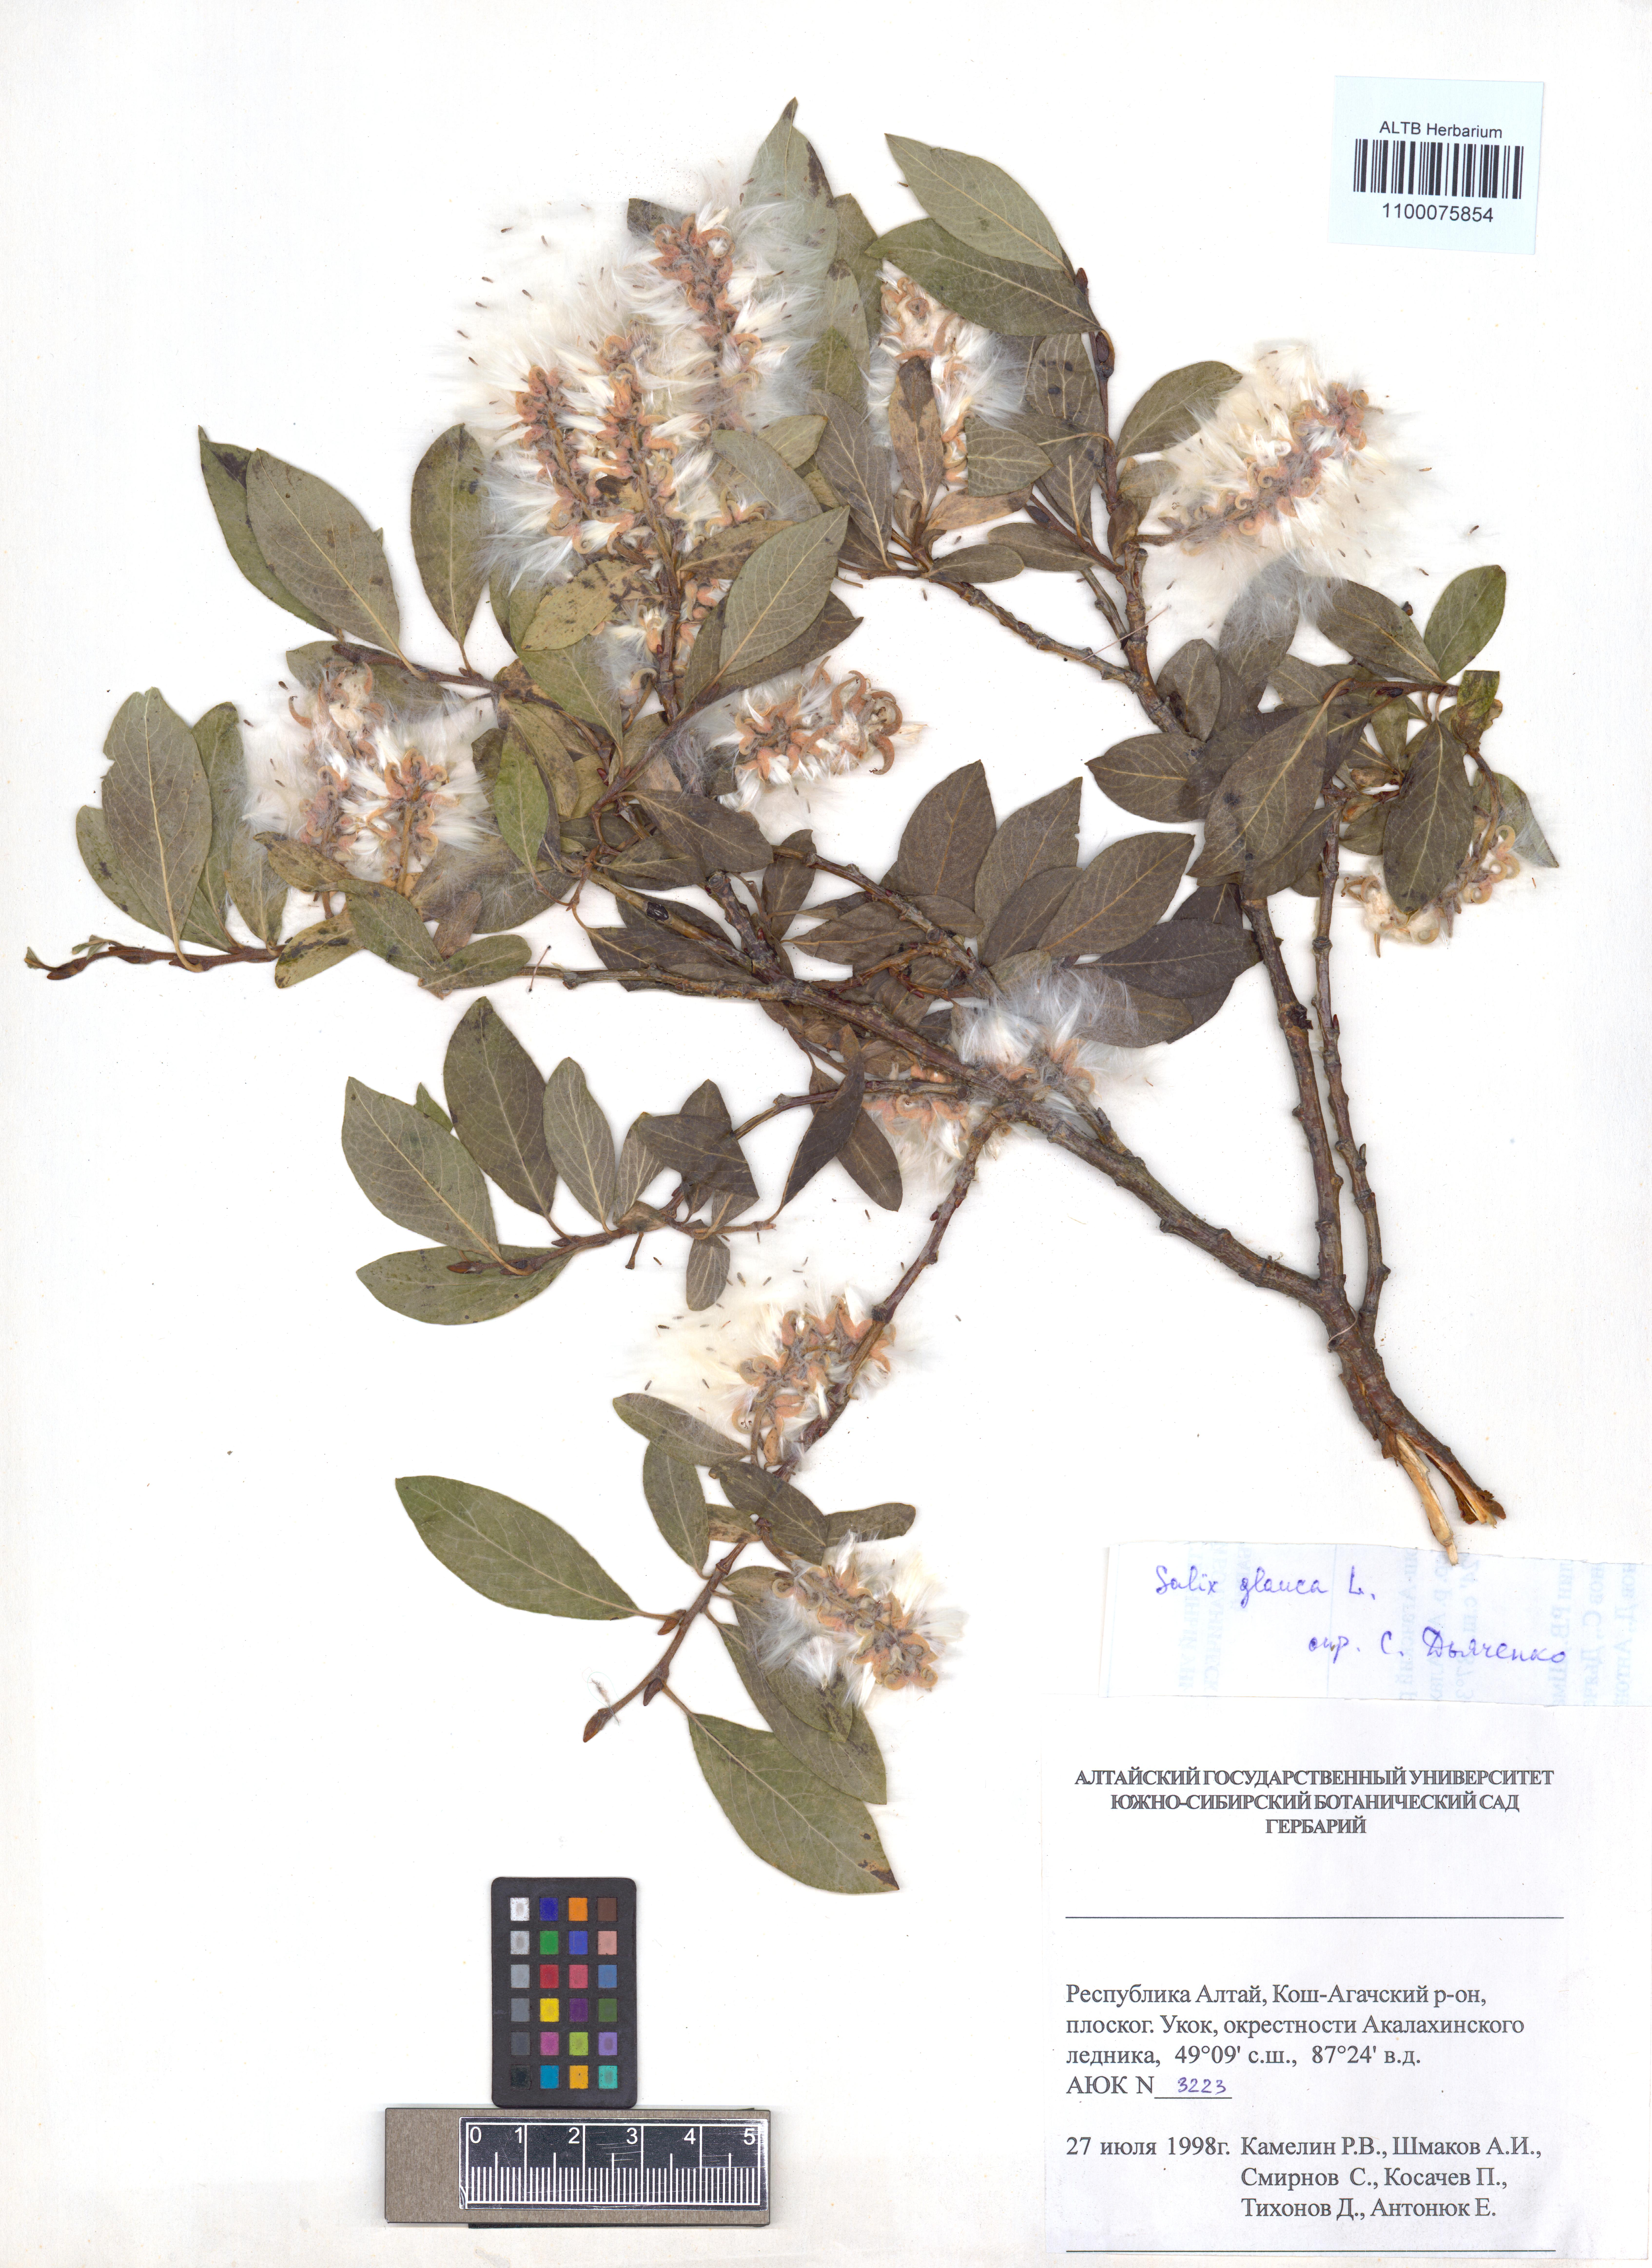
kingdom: Plantae
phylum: Tracheophyta
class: Magnoliopsida
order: Malpighiales
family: Salicaceae
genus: Salix
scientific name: Salix glauca
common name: Glaucous willow
